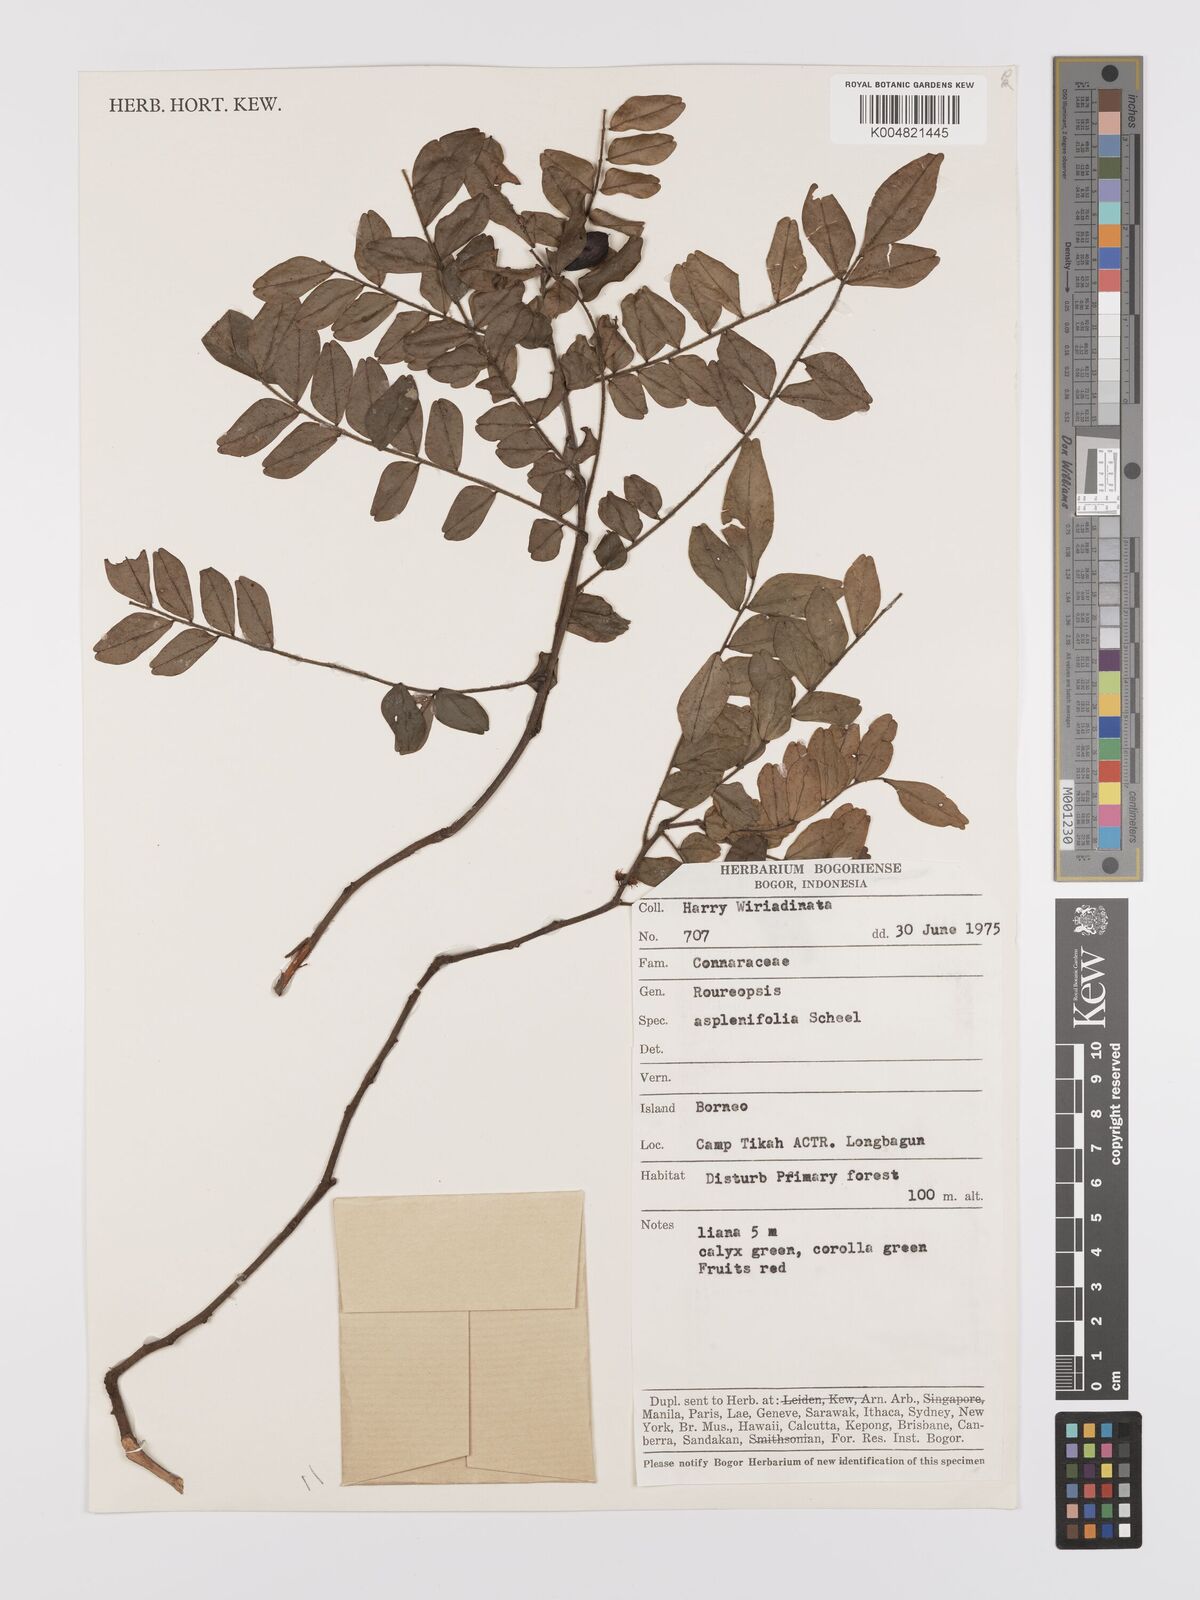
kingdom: Plantae
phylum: Tracheophyta
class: Magnoliopsida
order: Oxalidales
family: Connaraceae
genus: Rourea
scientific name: Rourea aspleniifolia
